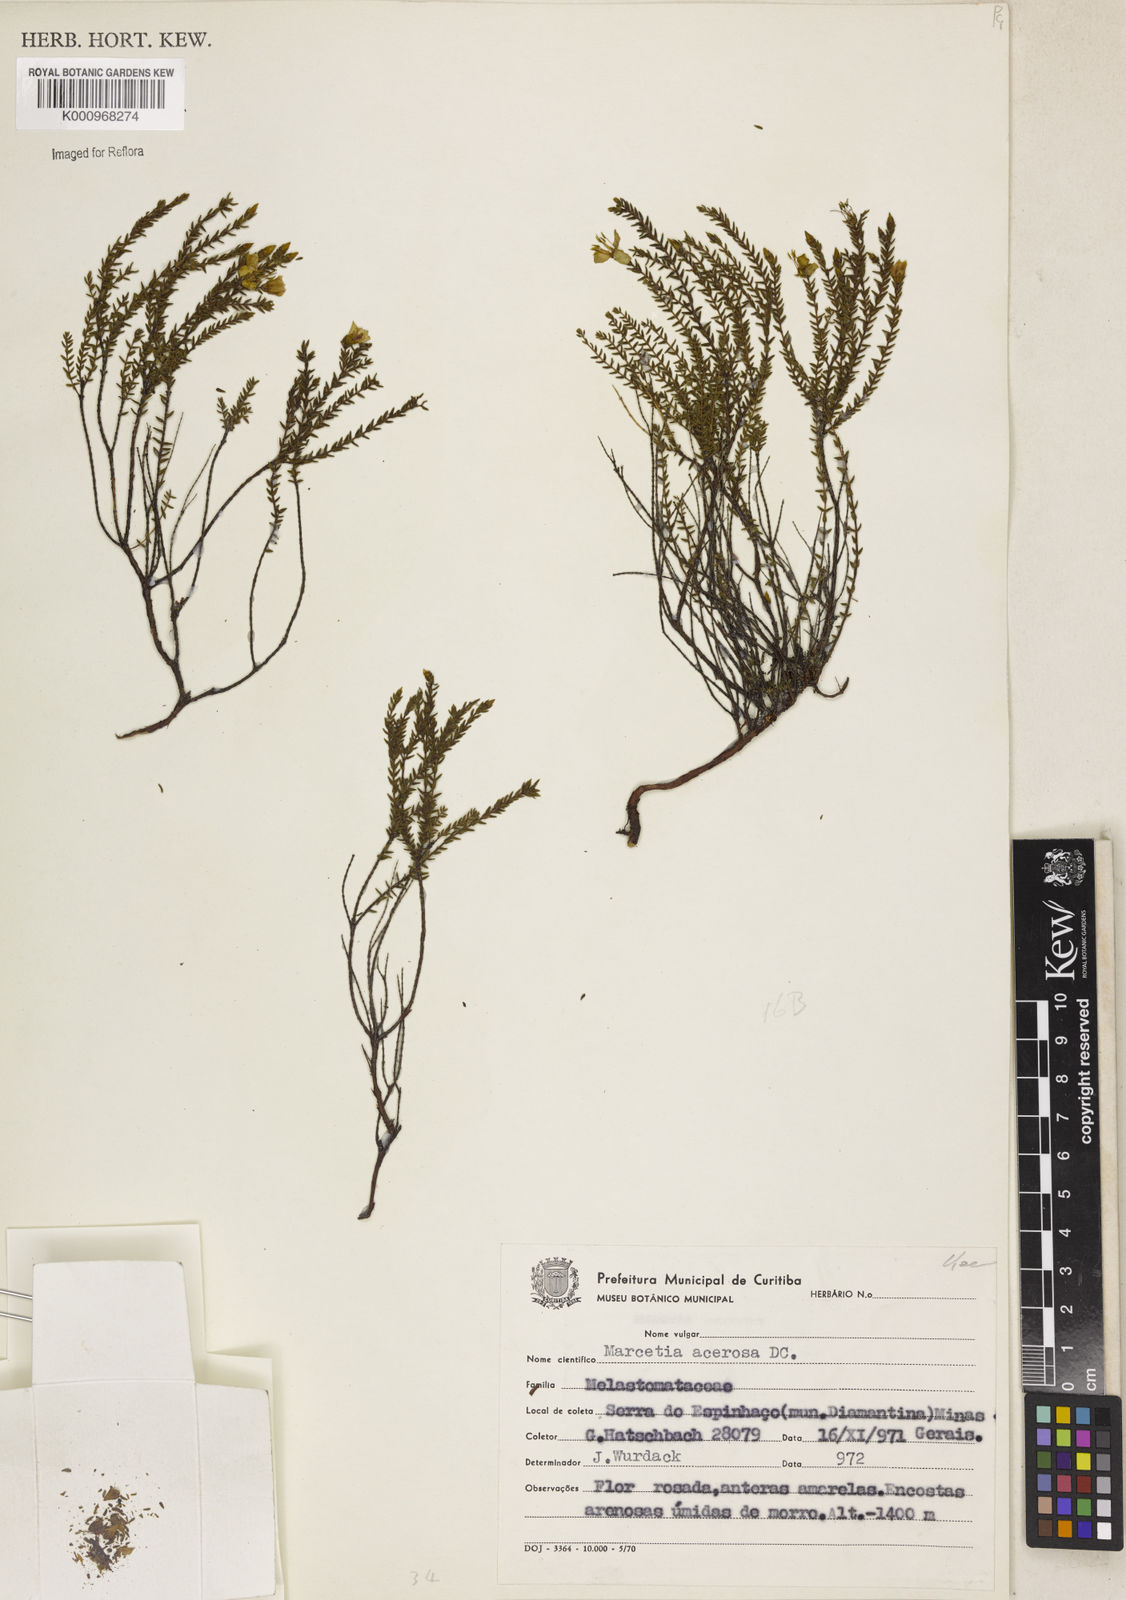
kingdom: Plantae
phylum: Tracheophyta
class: Magnoliopsida
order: Myrtales
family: Melastomataceae
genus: Marcetia
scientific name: Marcetia acerosa
